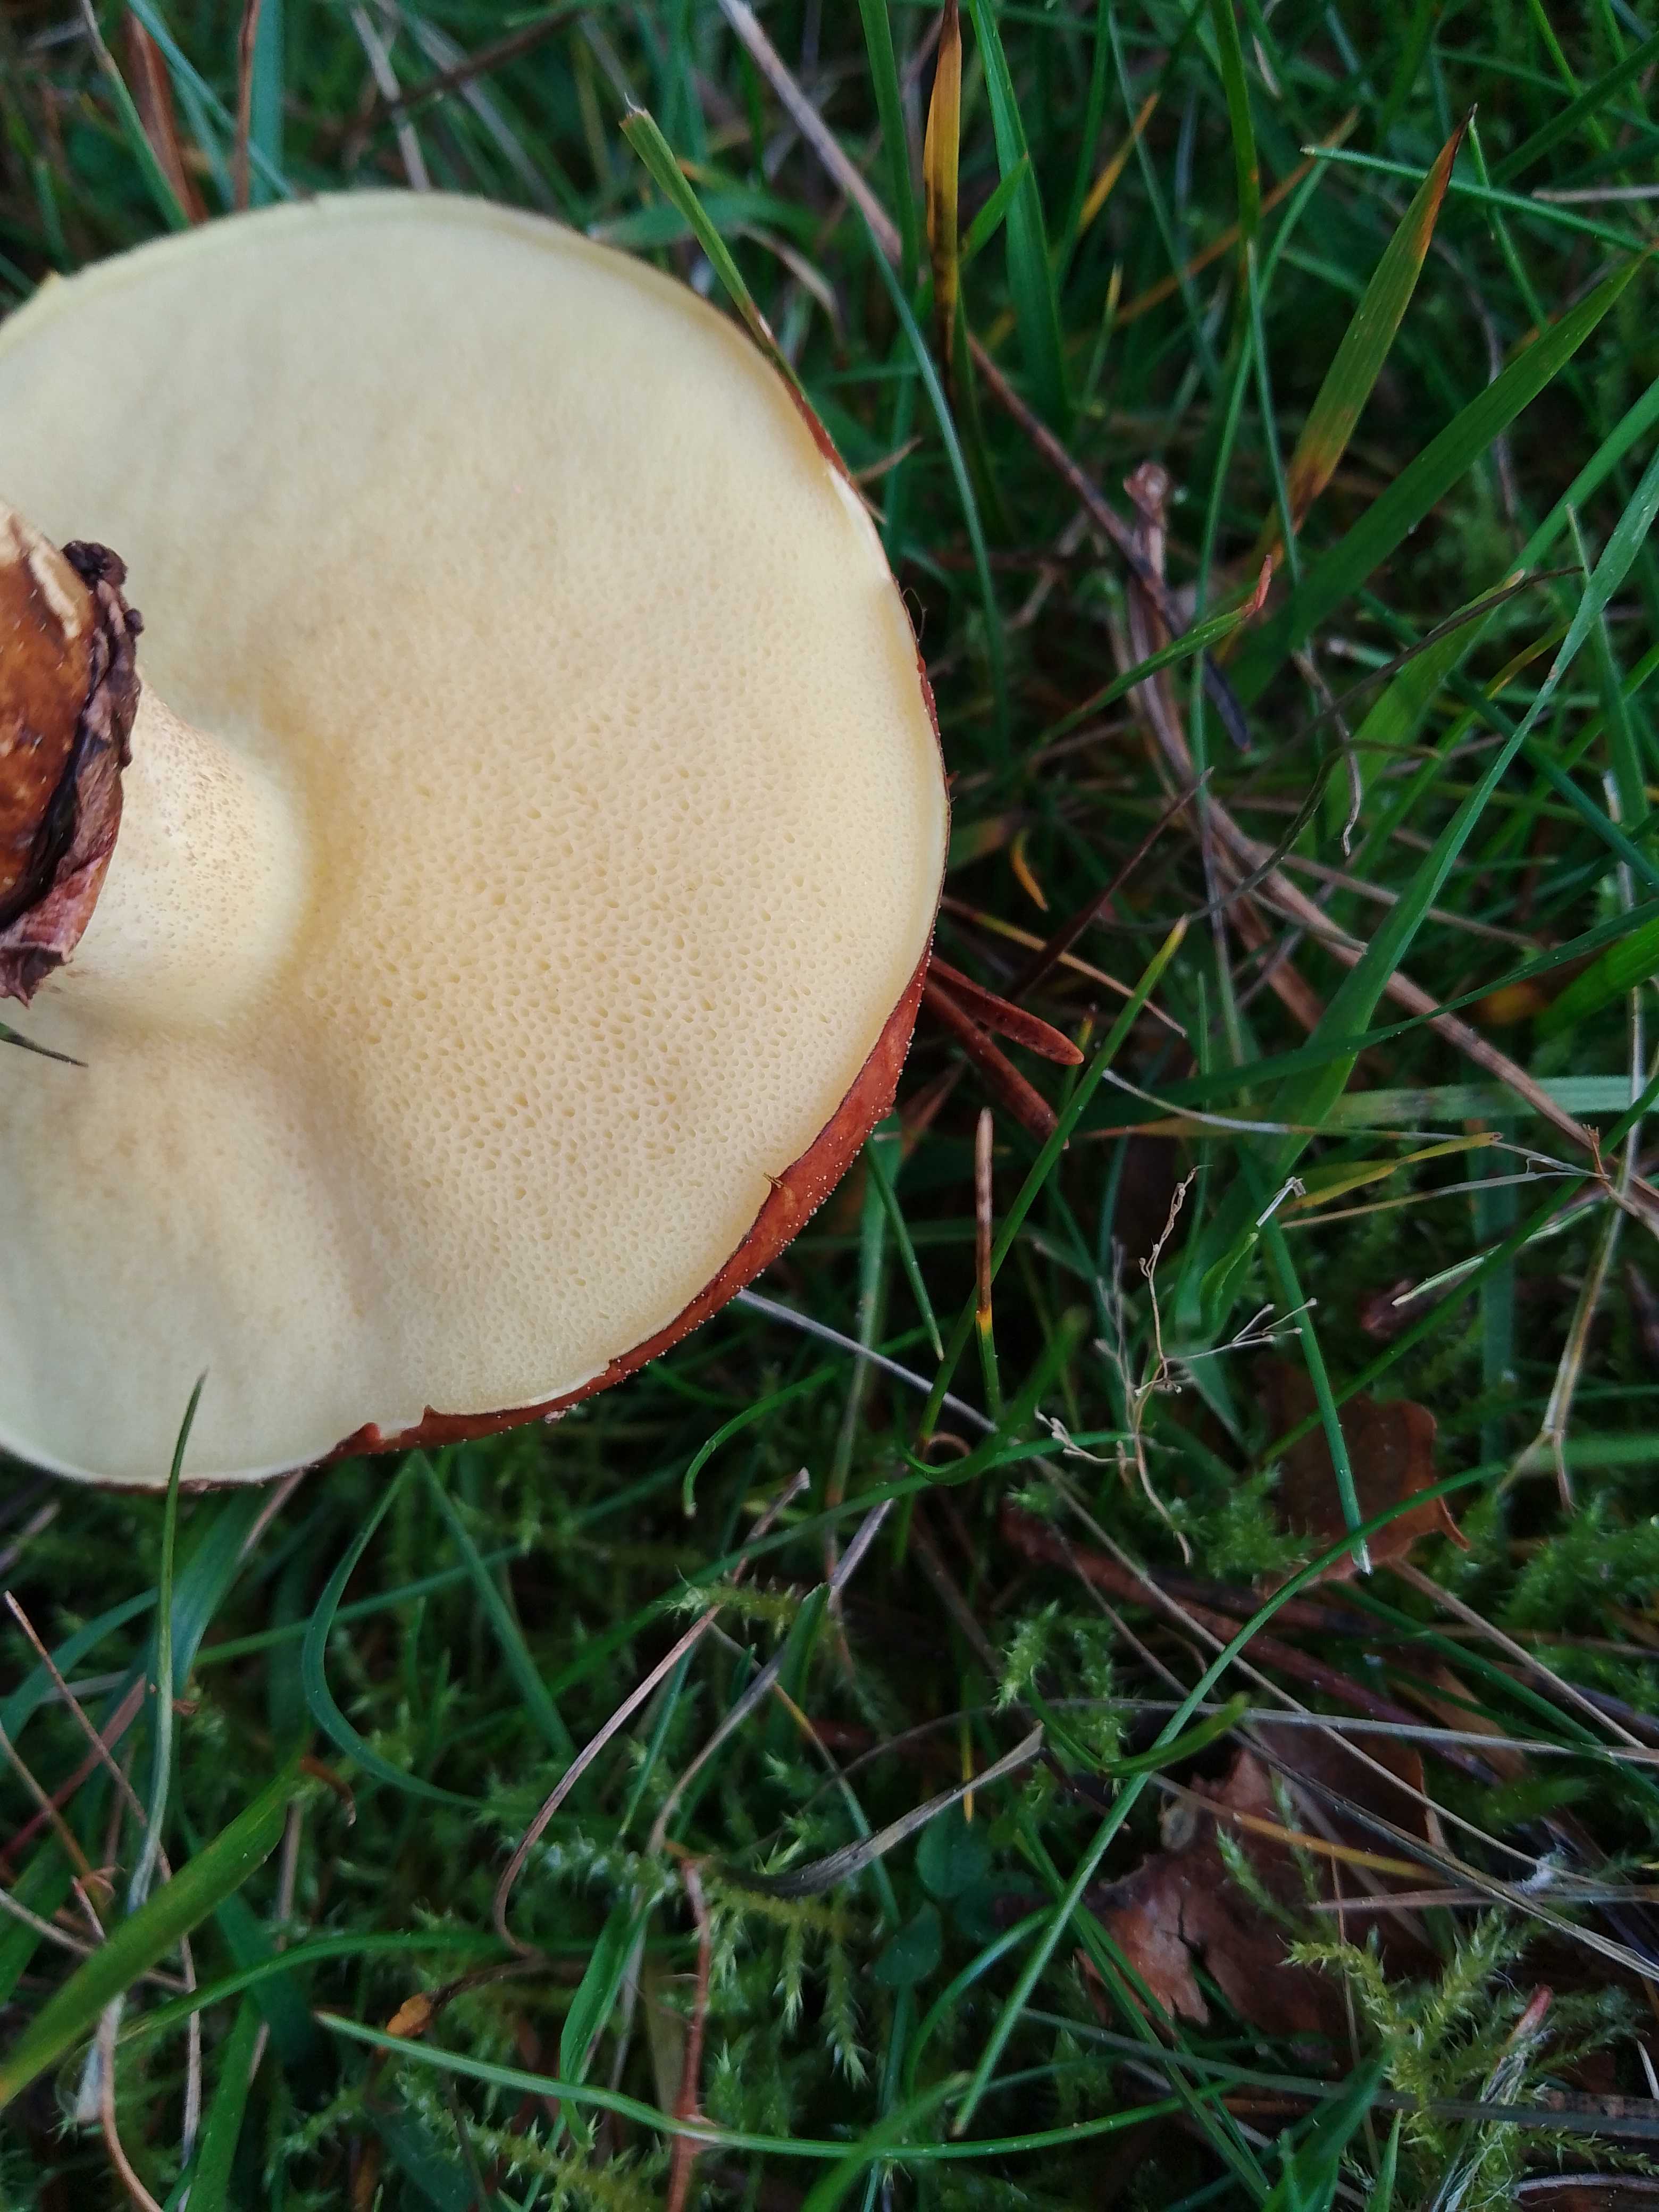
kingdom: Fungi
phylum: Basidiomycota
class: Agaricomycetes
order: Boletales
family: Suillaceae
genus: Suillus
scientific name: Suillus luteus
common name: brungul slimrørhat
